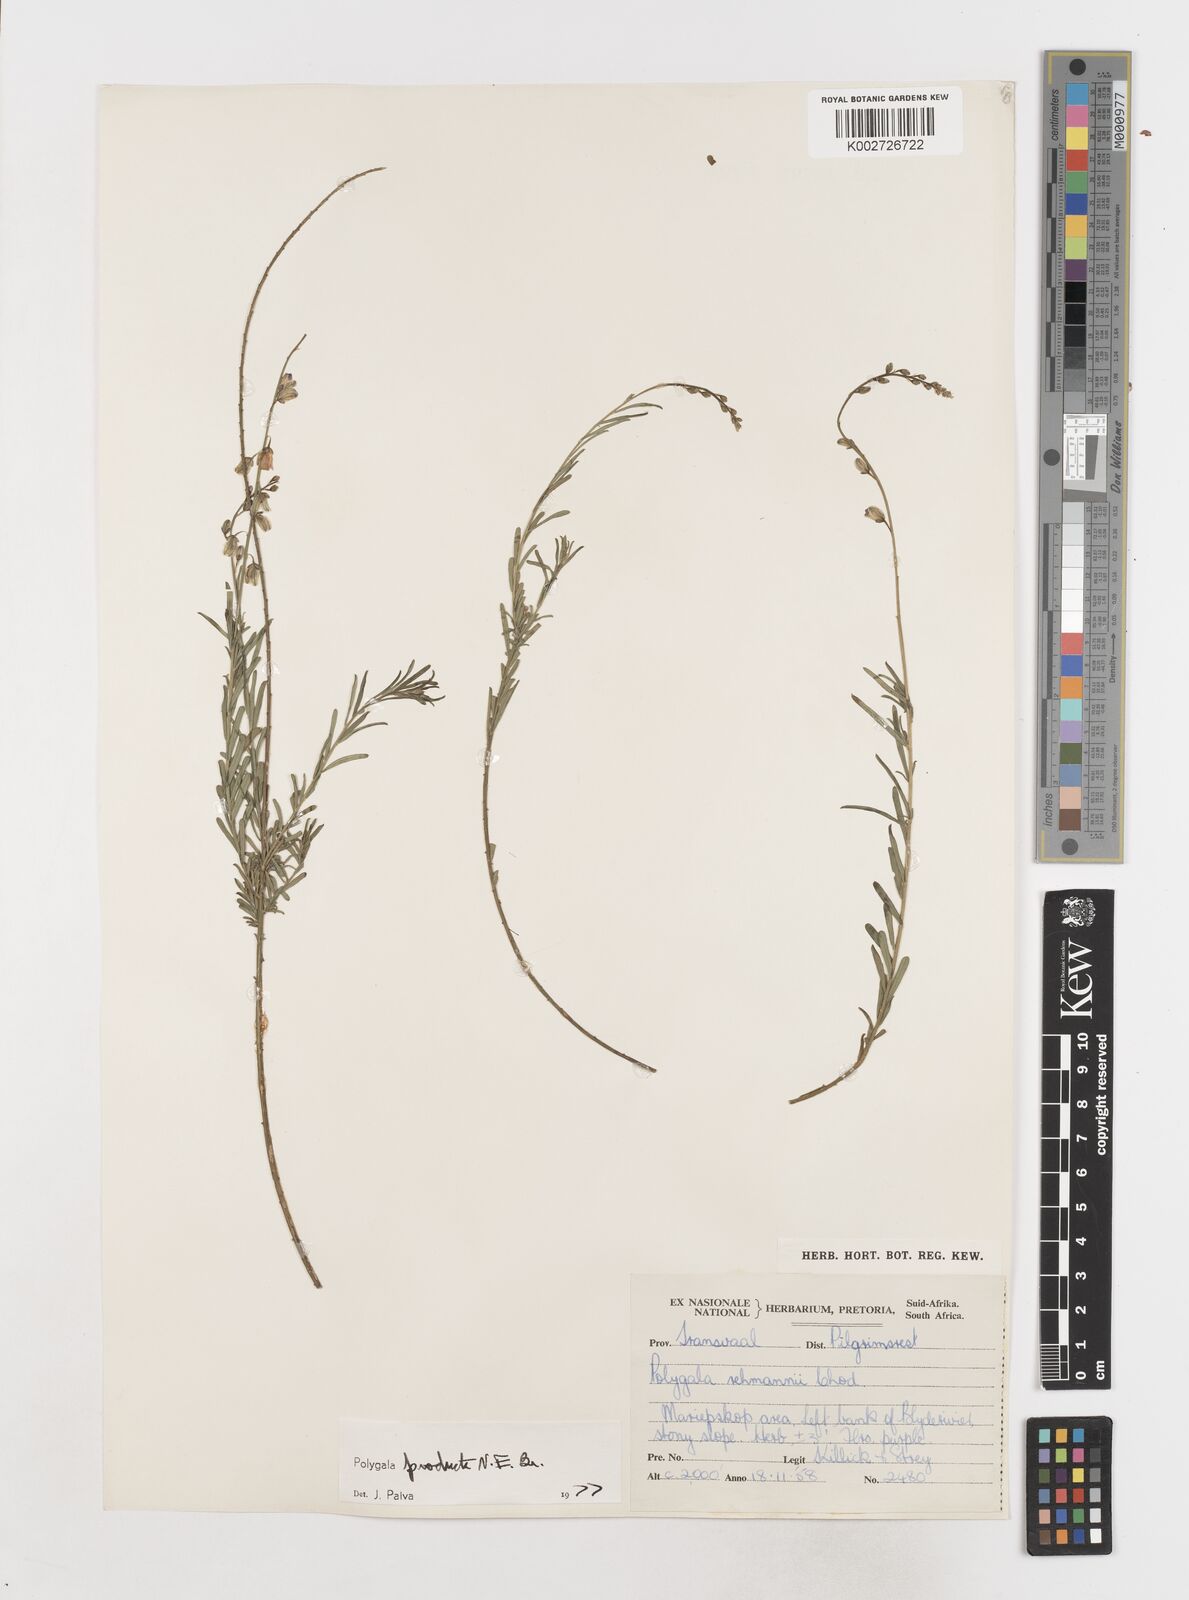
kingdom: Plantae
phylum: Tracheophyta
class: Magnoliopsida
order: Fabales
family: Polygalaceae
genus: Polygala
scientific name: Polygala producta
